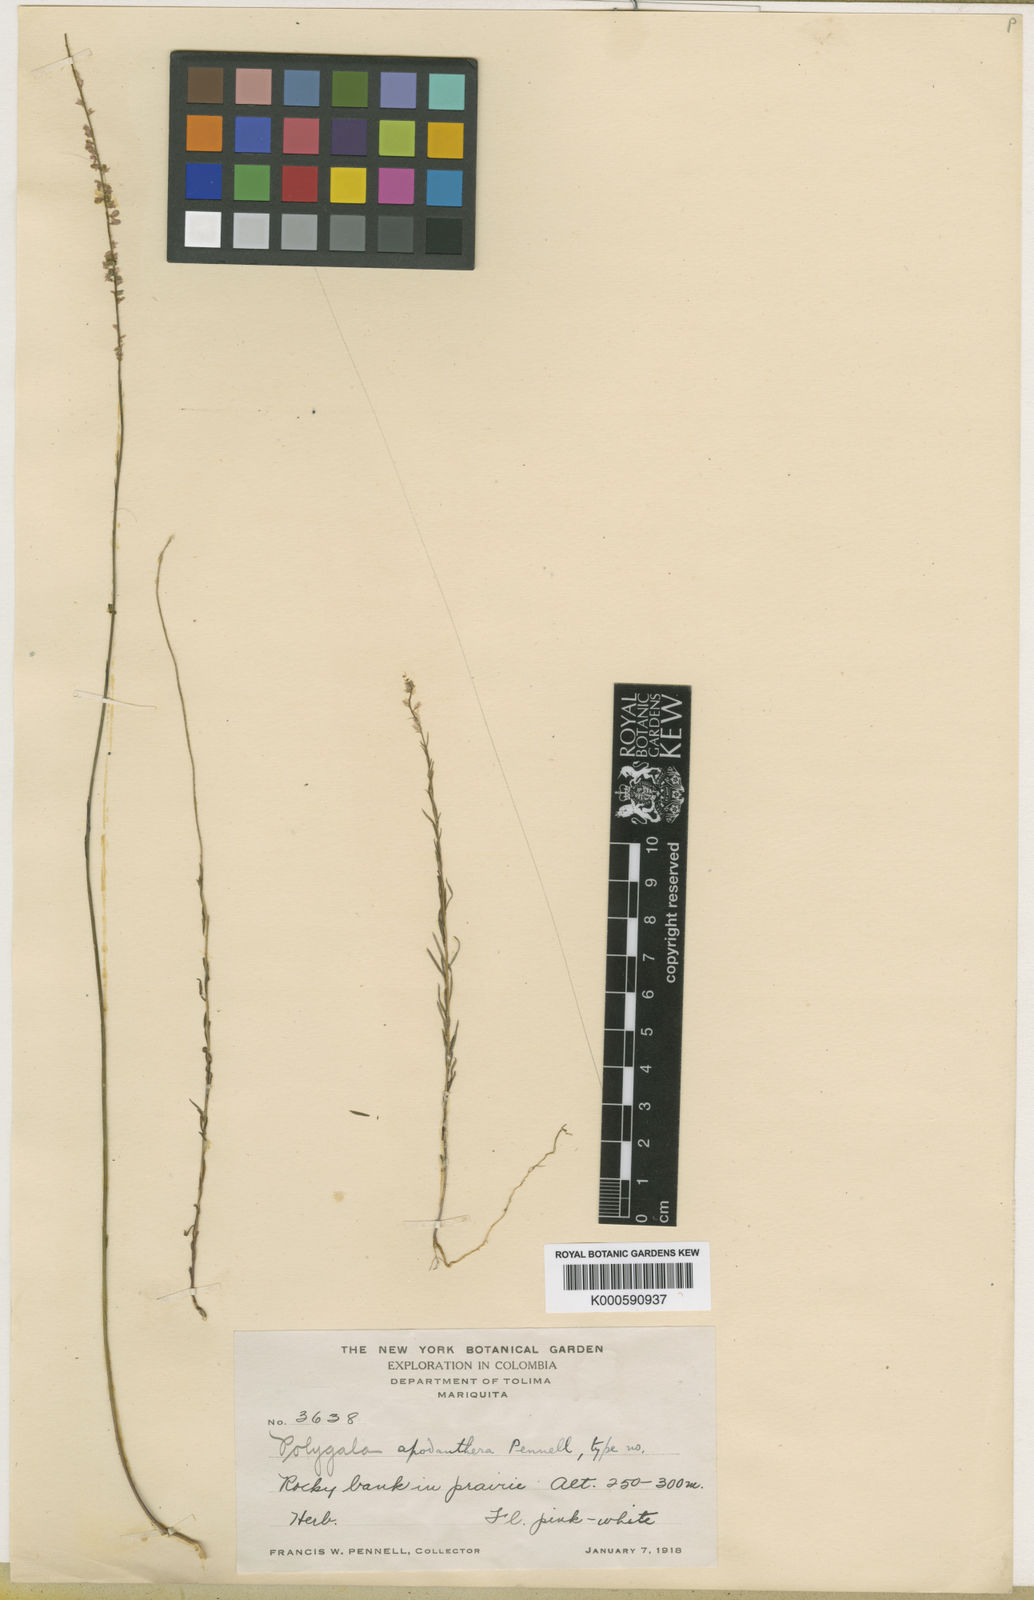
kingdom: Plantae
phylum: Tracheophyta
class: Magnoliopsida
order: Fabales
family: Polygalaceae
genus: Polygala
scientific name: Polygala
